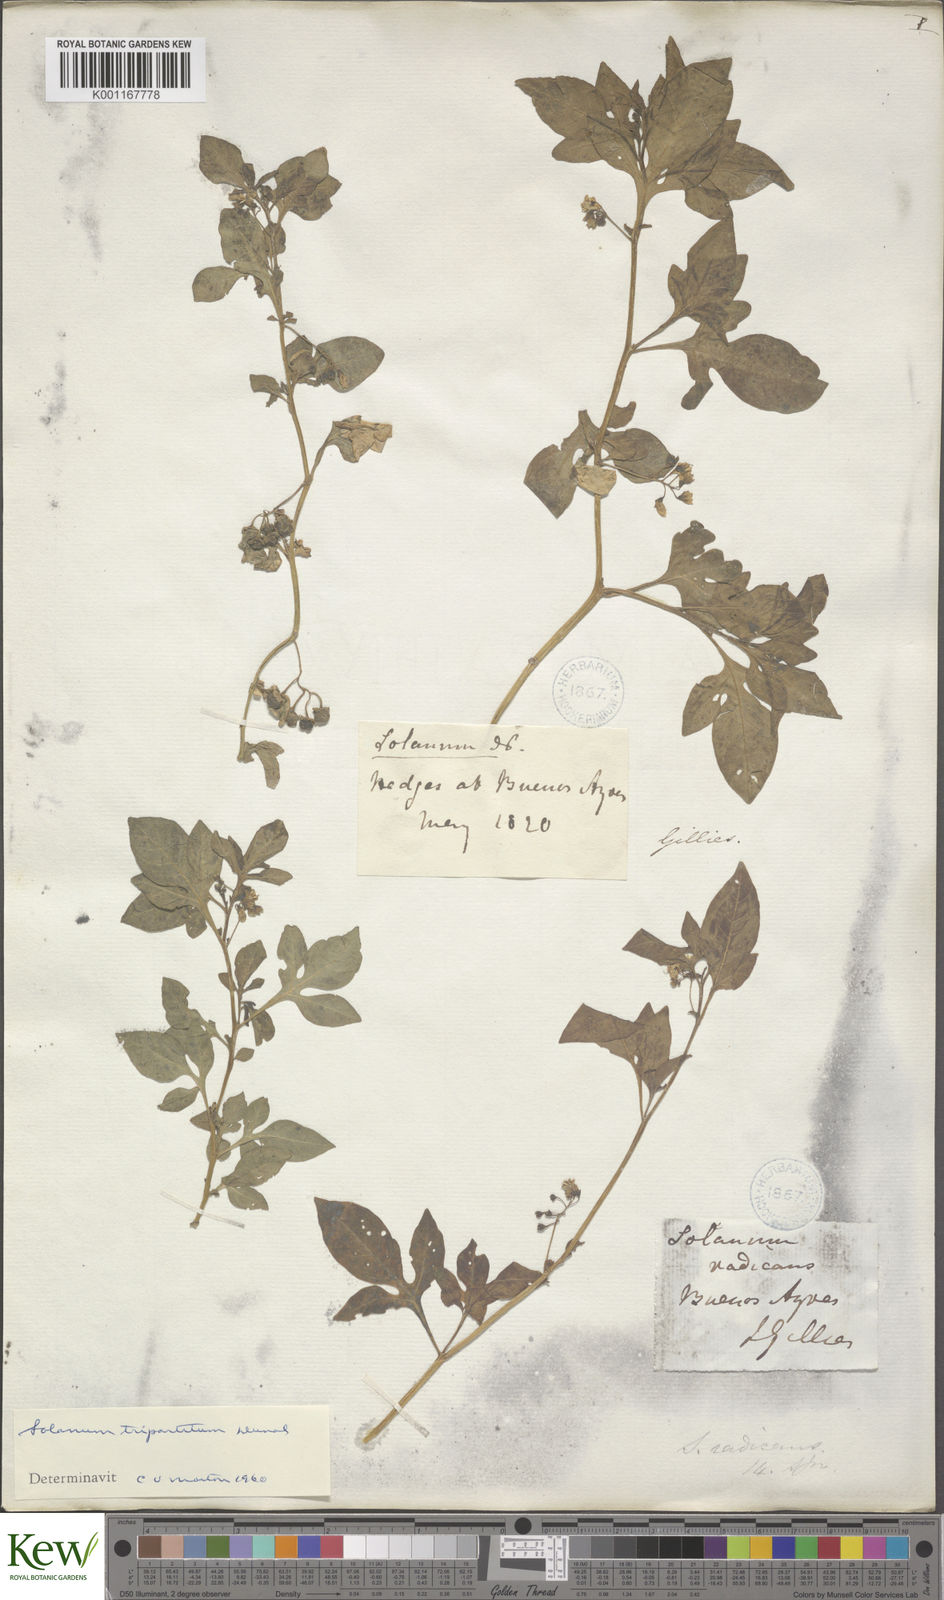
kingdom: Plantae
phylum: Tracheophyta
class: Magnoliopsida
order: Solanales
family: Solanaceae
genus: Solanum
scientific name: Solanum palitans
